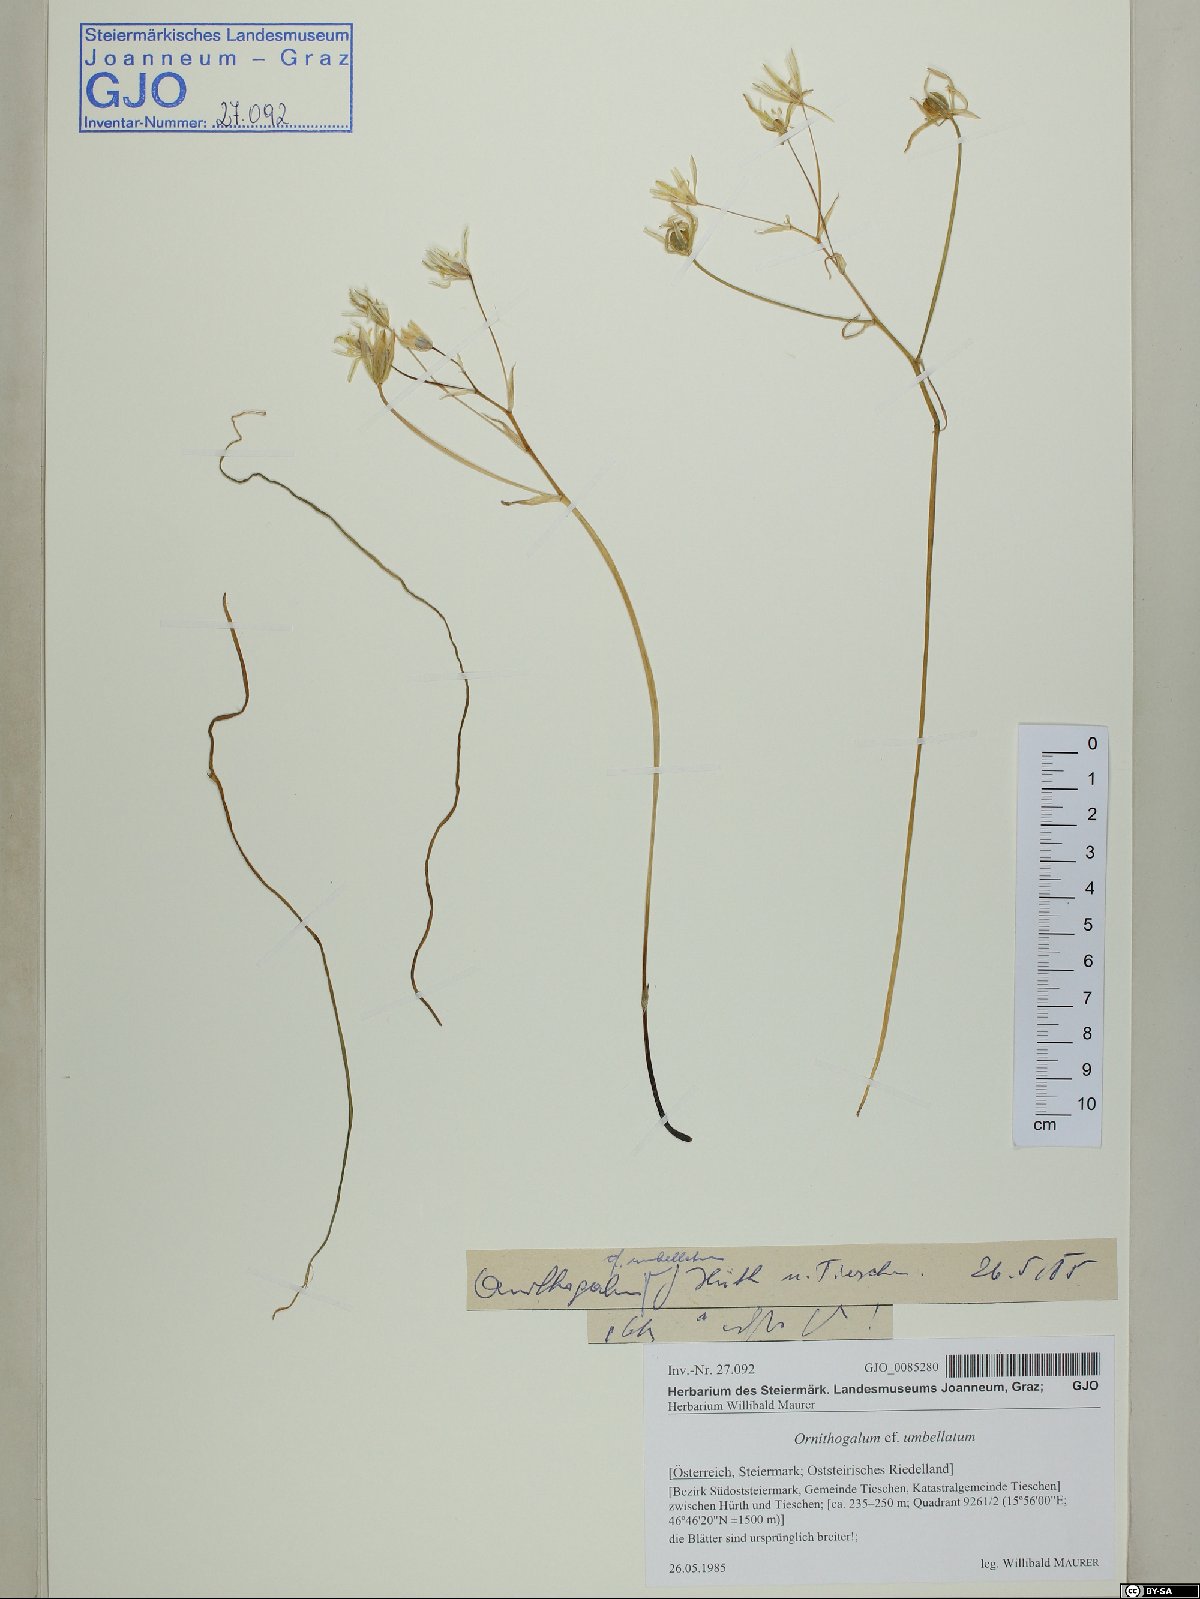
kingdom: Plantae
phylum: Tracheophyta
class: Liliopsida
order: Asparagales
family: Asparagaceae
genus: Ornithogalum
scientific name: Ornithogalum umbellatum
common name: Garden star-of-bethlehem
